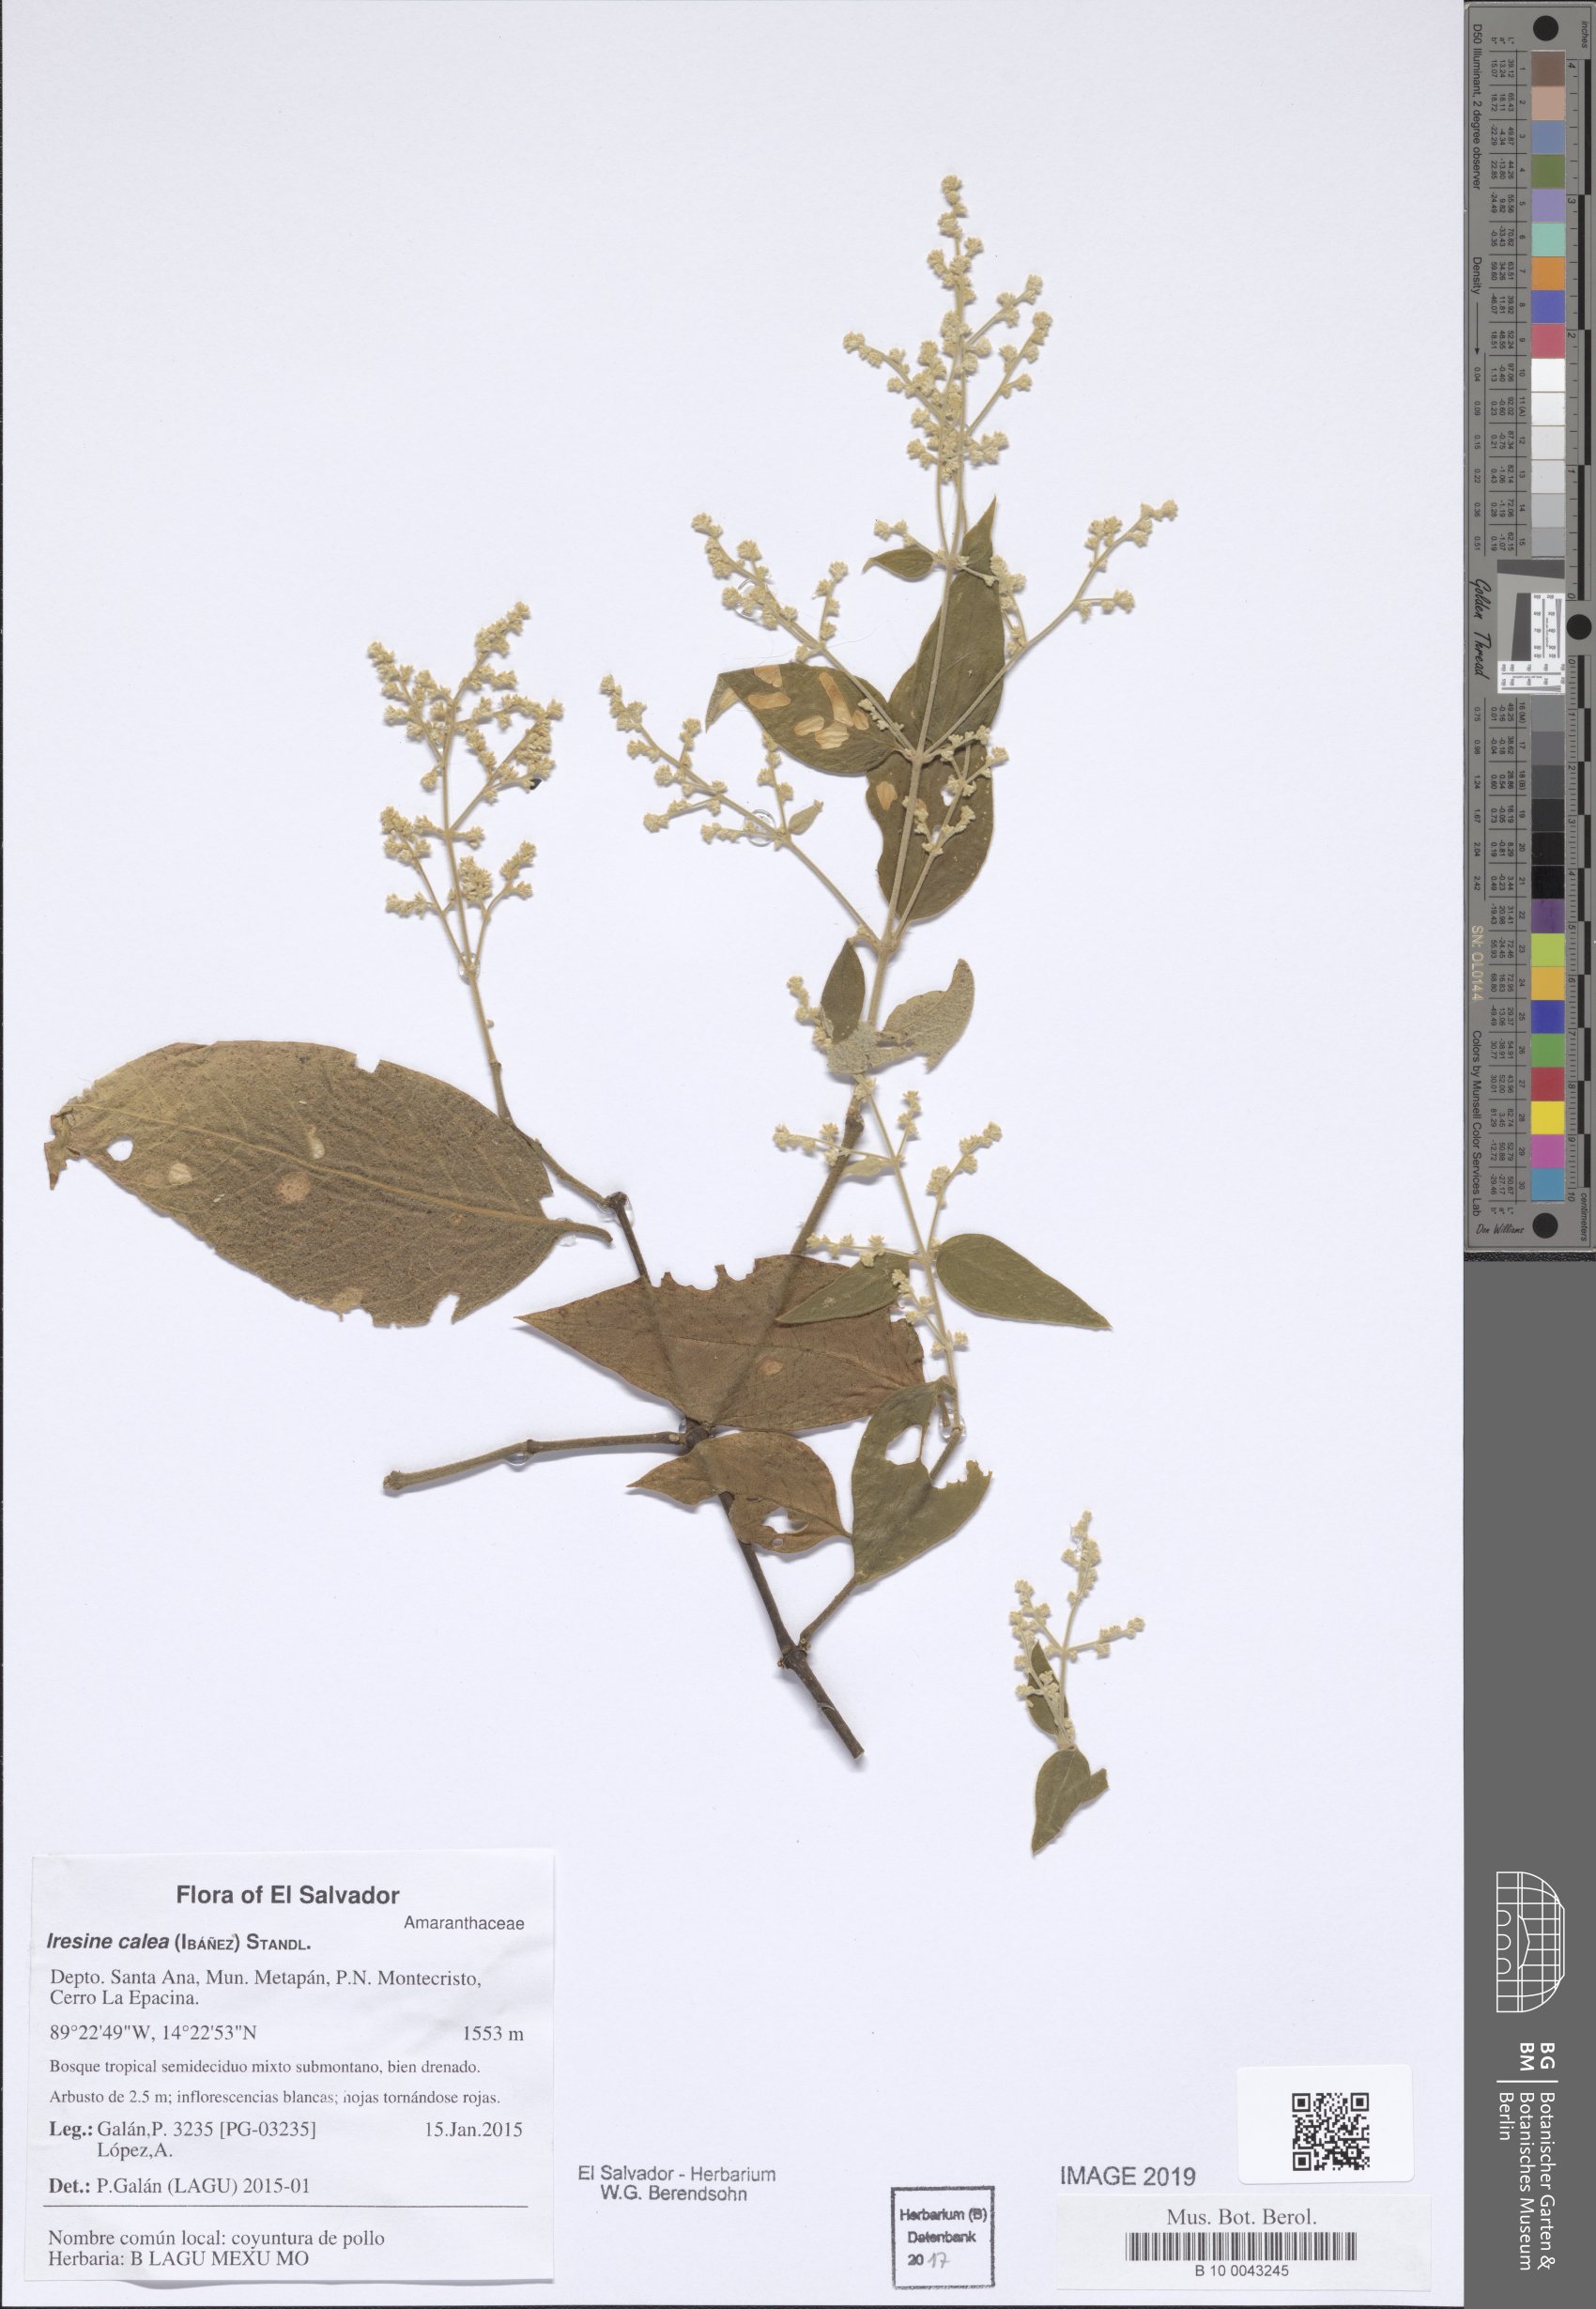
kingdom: Plantae
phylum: Tracheophyta
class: Magnoliopsida
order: Caryophyllales
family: Amaranthaceae
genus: Iresine
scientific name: Iresine latifolia
